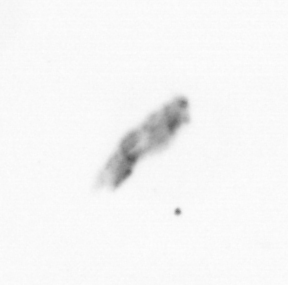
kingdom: Animalia
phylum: Arthropoda
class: Copepoda
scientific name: Copepoda
